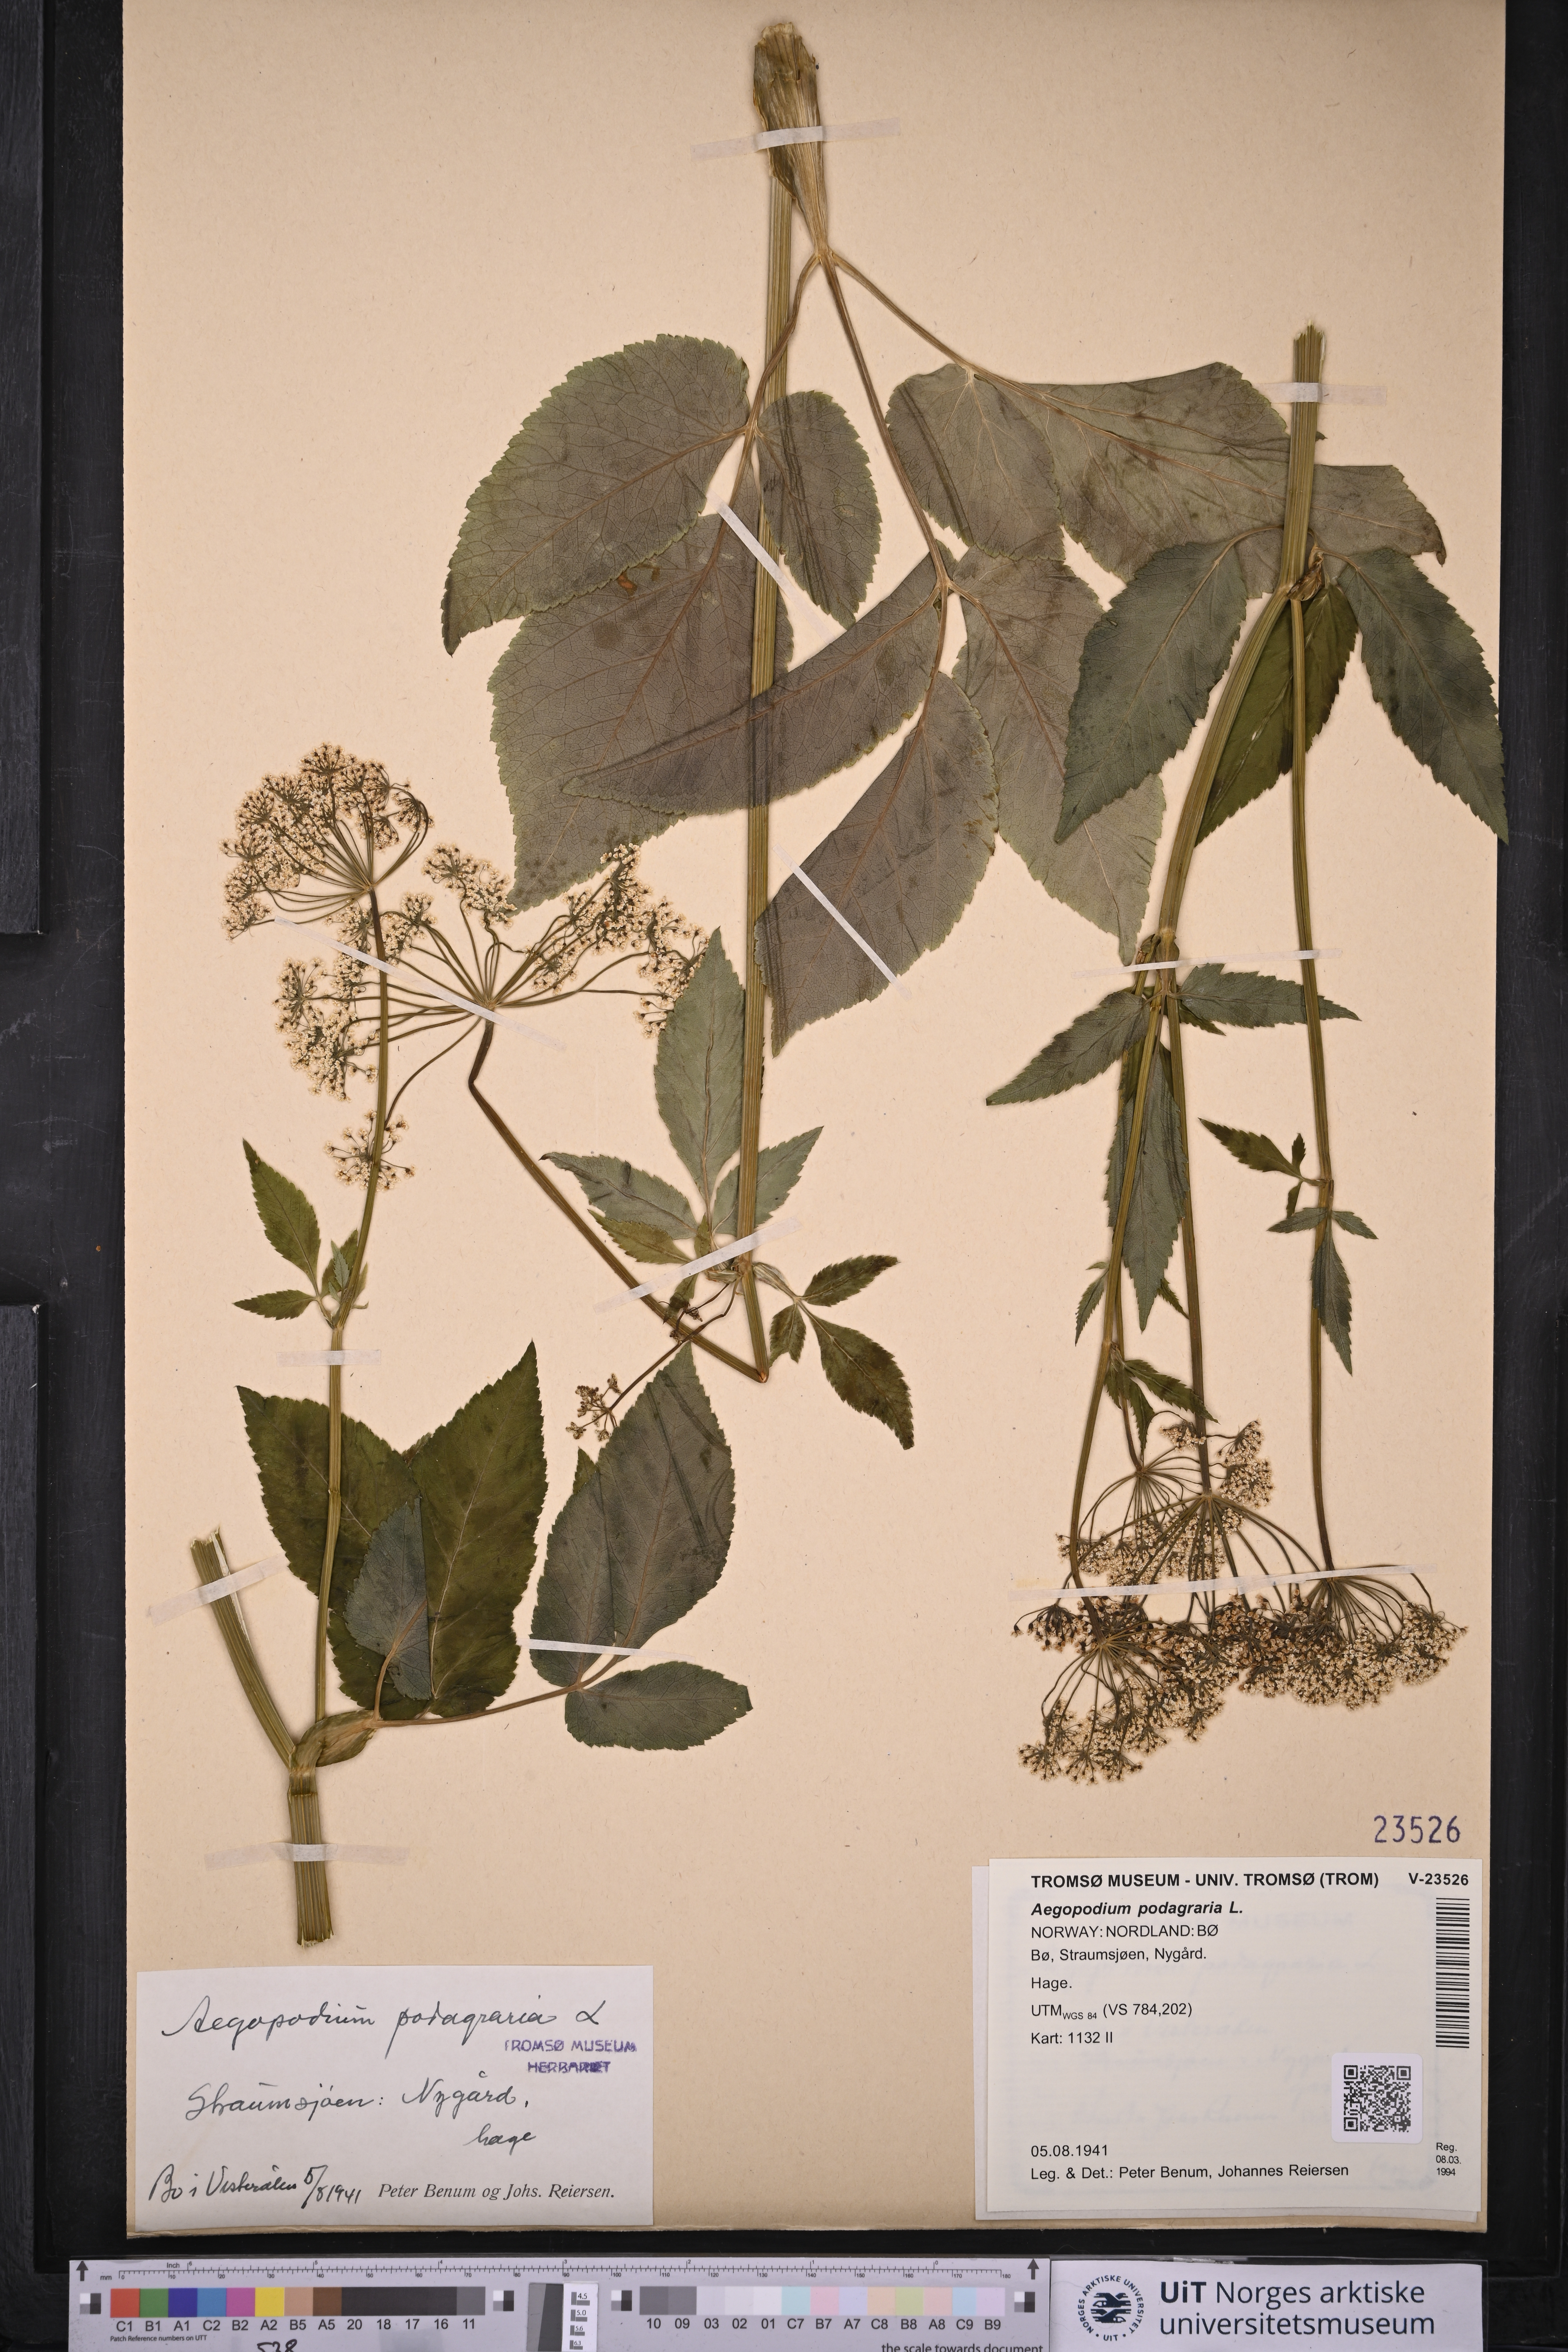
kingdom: Plantae
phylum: Tracheophyta
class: Magnoliopsida
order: Apiales
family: Apiaceae
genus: Aegopodium
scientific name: Aegopodium podagraria
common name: Ground-elder
